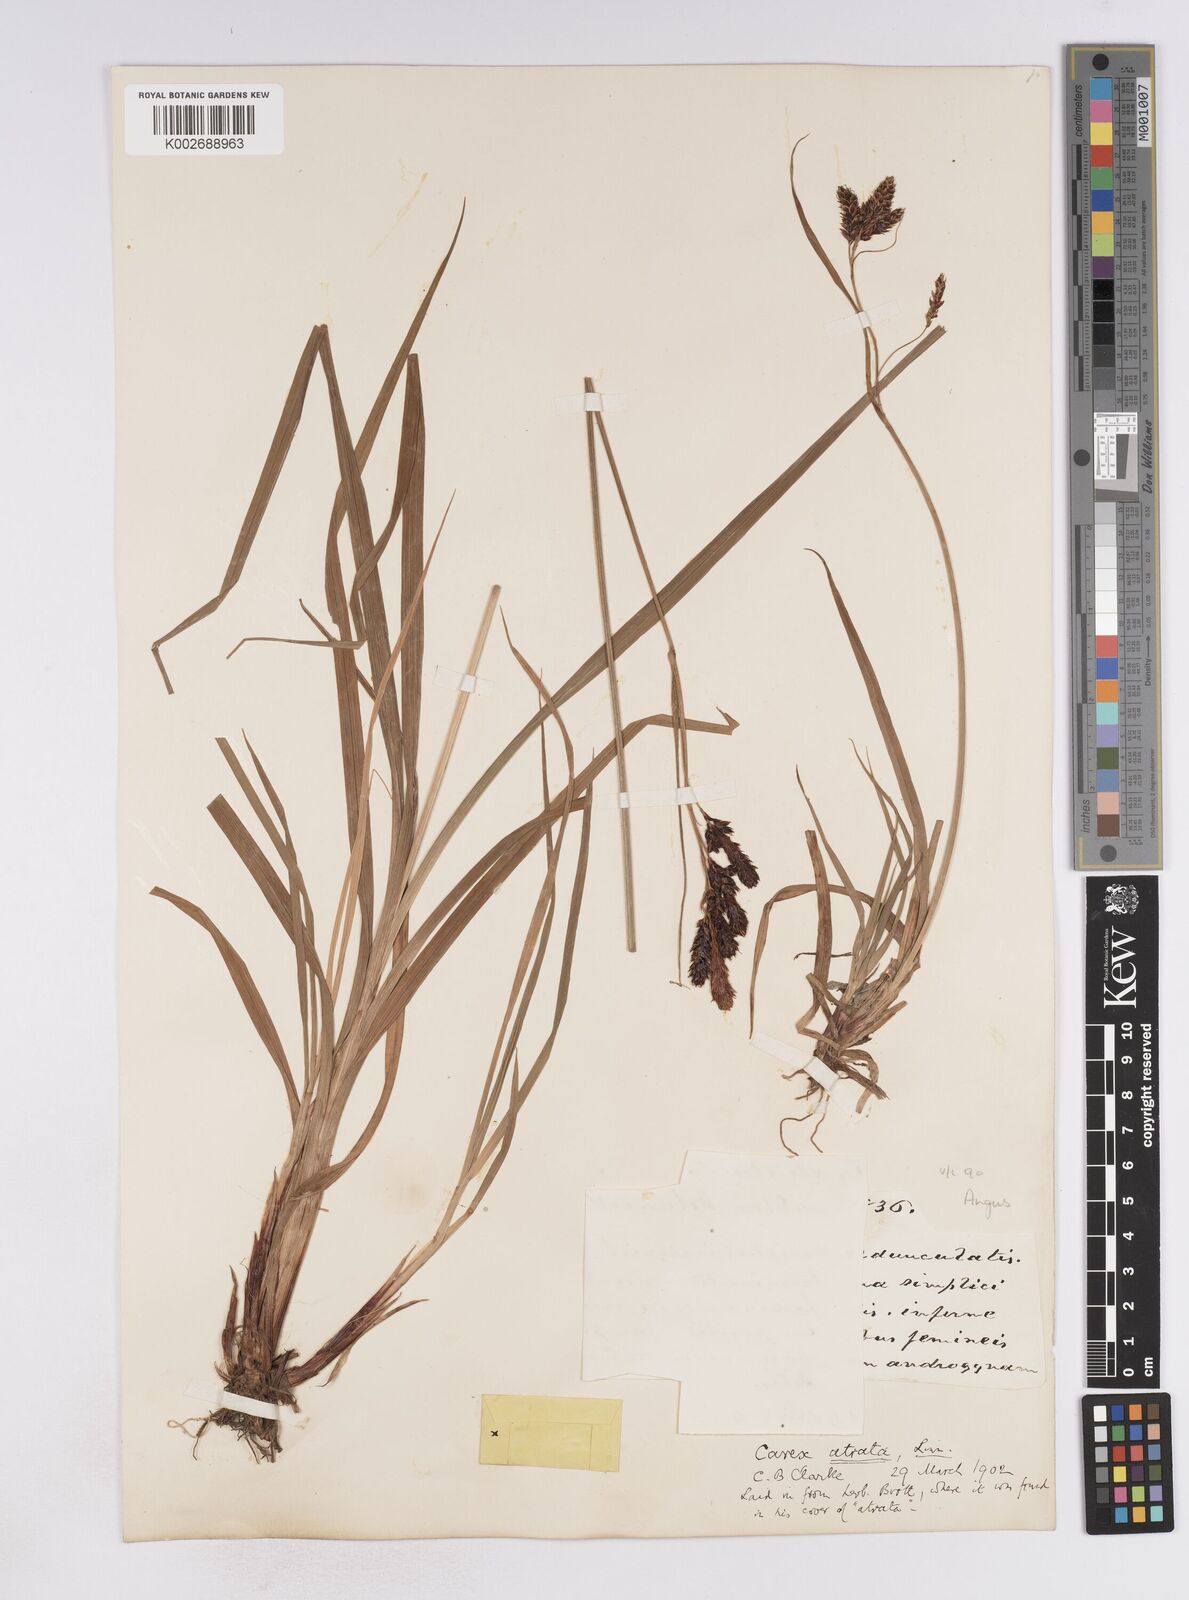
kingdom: Plantae
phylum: Tracheophyta
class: Liliopsida
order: Poales
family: Cyperaceae
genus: Carex
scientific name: Carex atrata
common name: Black alpine sedge
